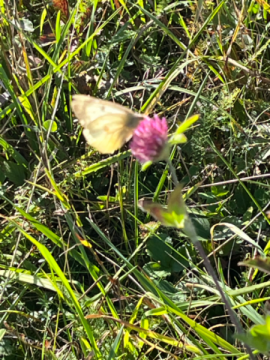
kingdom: Animalia
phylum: Arthropoda
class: Insecta
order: Lepidoptera
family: Pieridae
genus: Colias
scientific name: Colias philodice
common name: Clouded Sulphur
